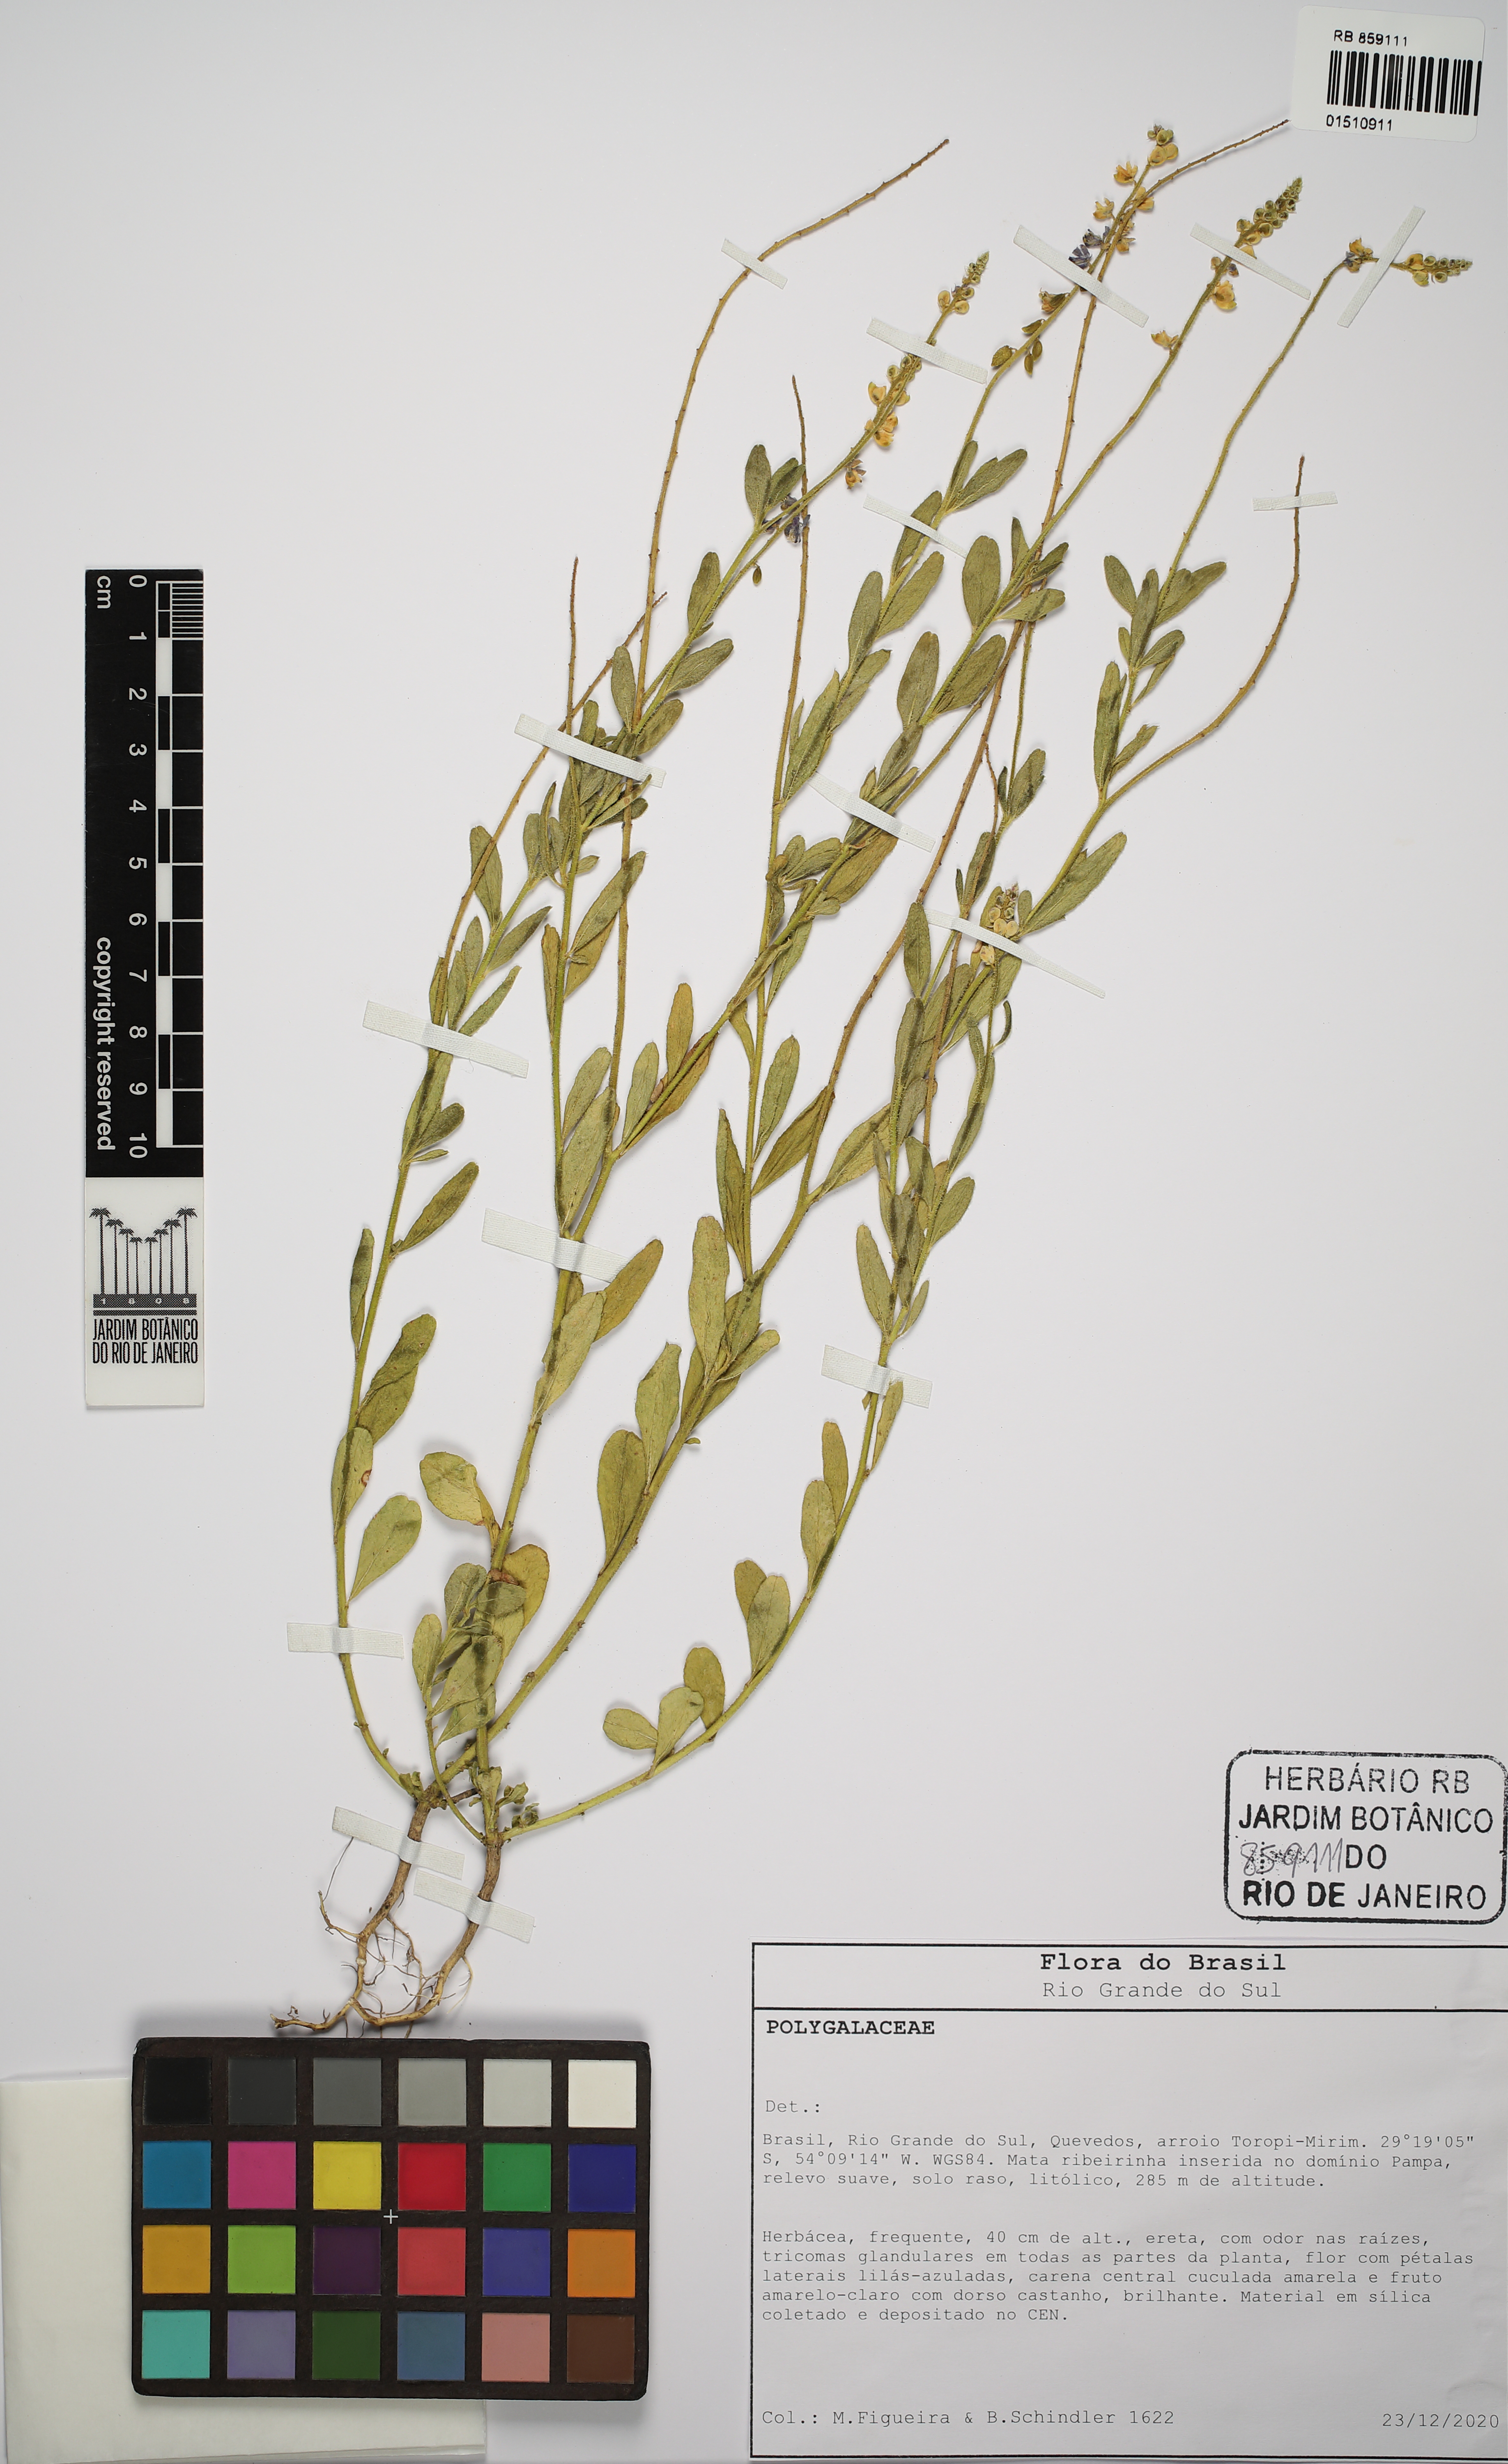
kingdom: Plantae
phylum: Tracheophyta
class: Magnoliopsida
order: Fabales
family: Polygalaceae
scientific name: Polygalaceae
